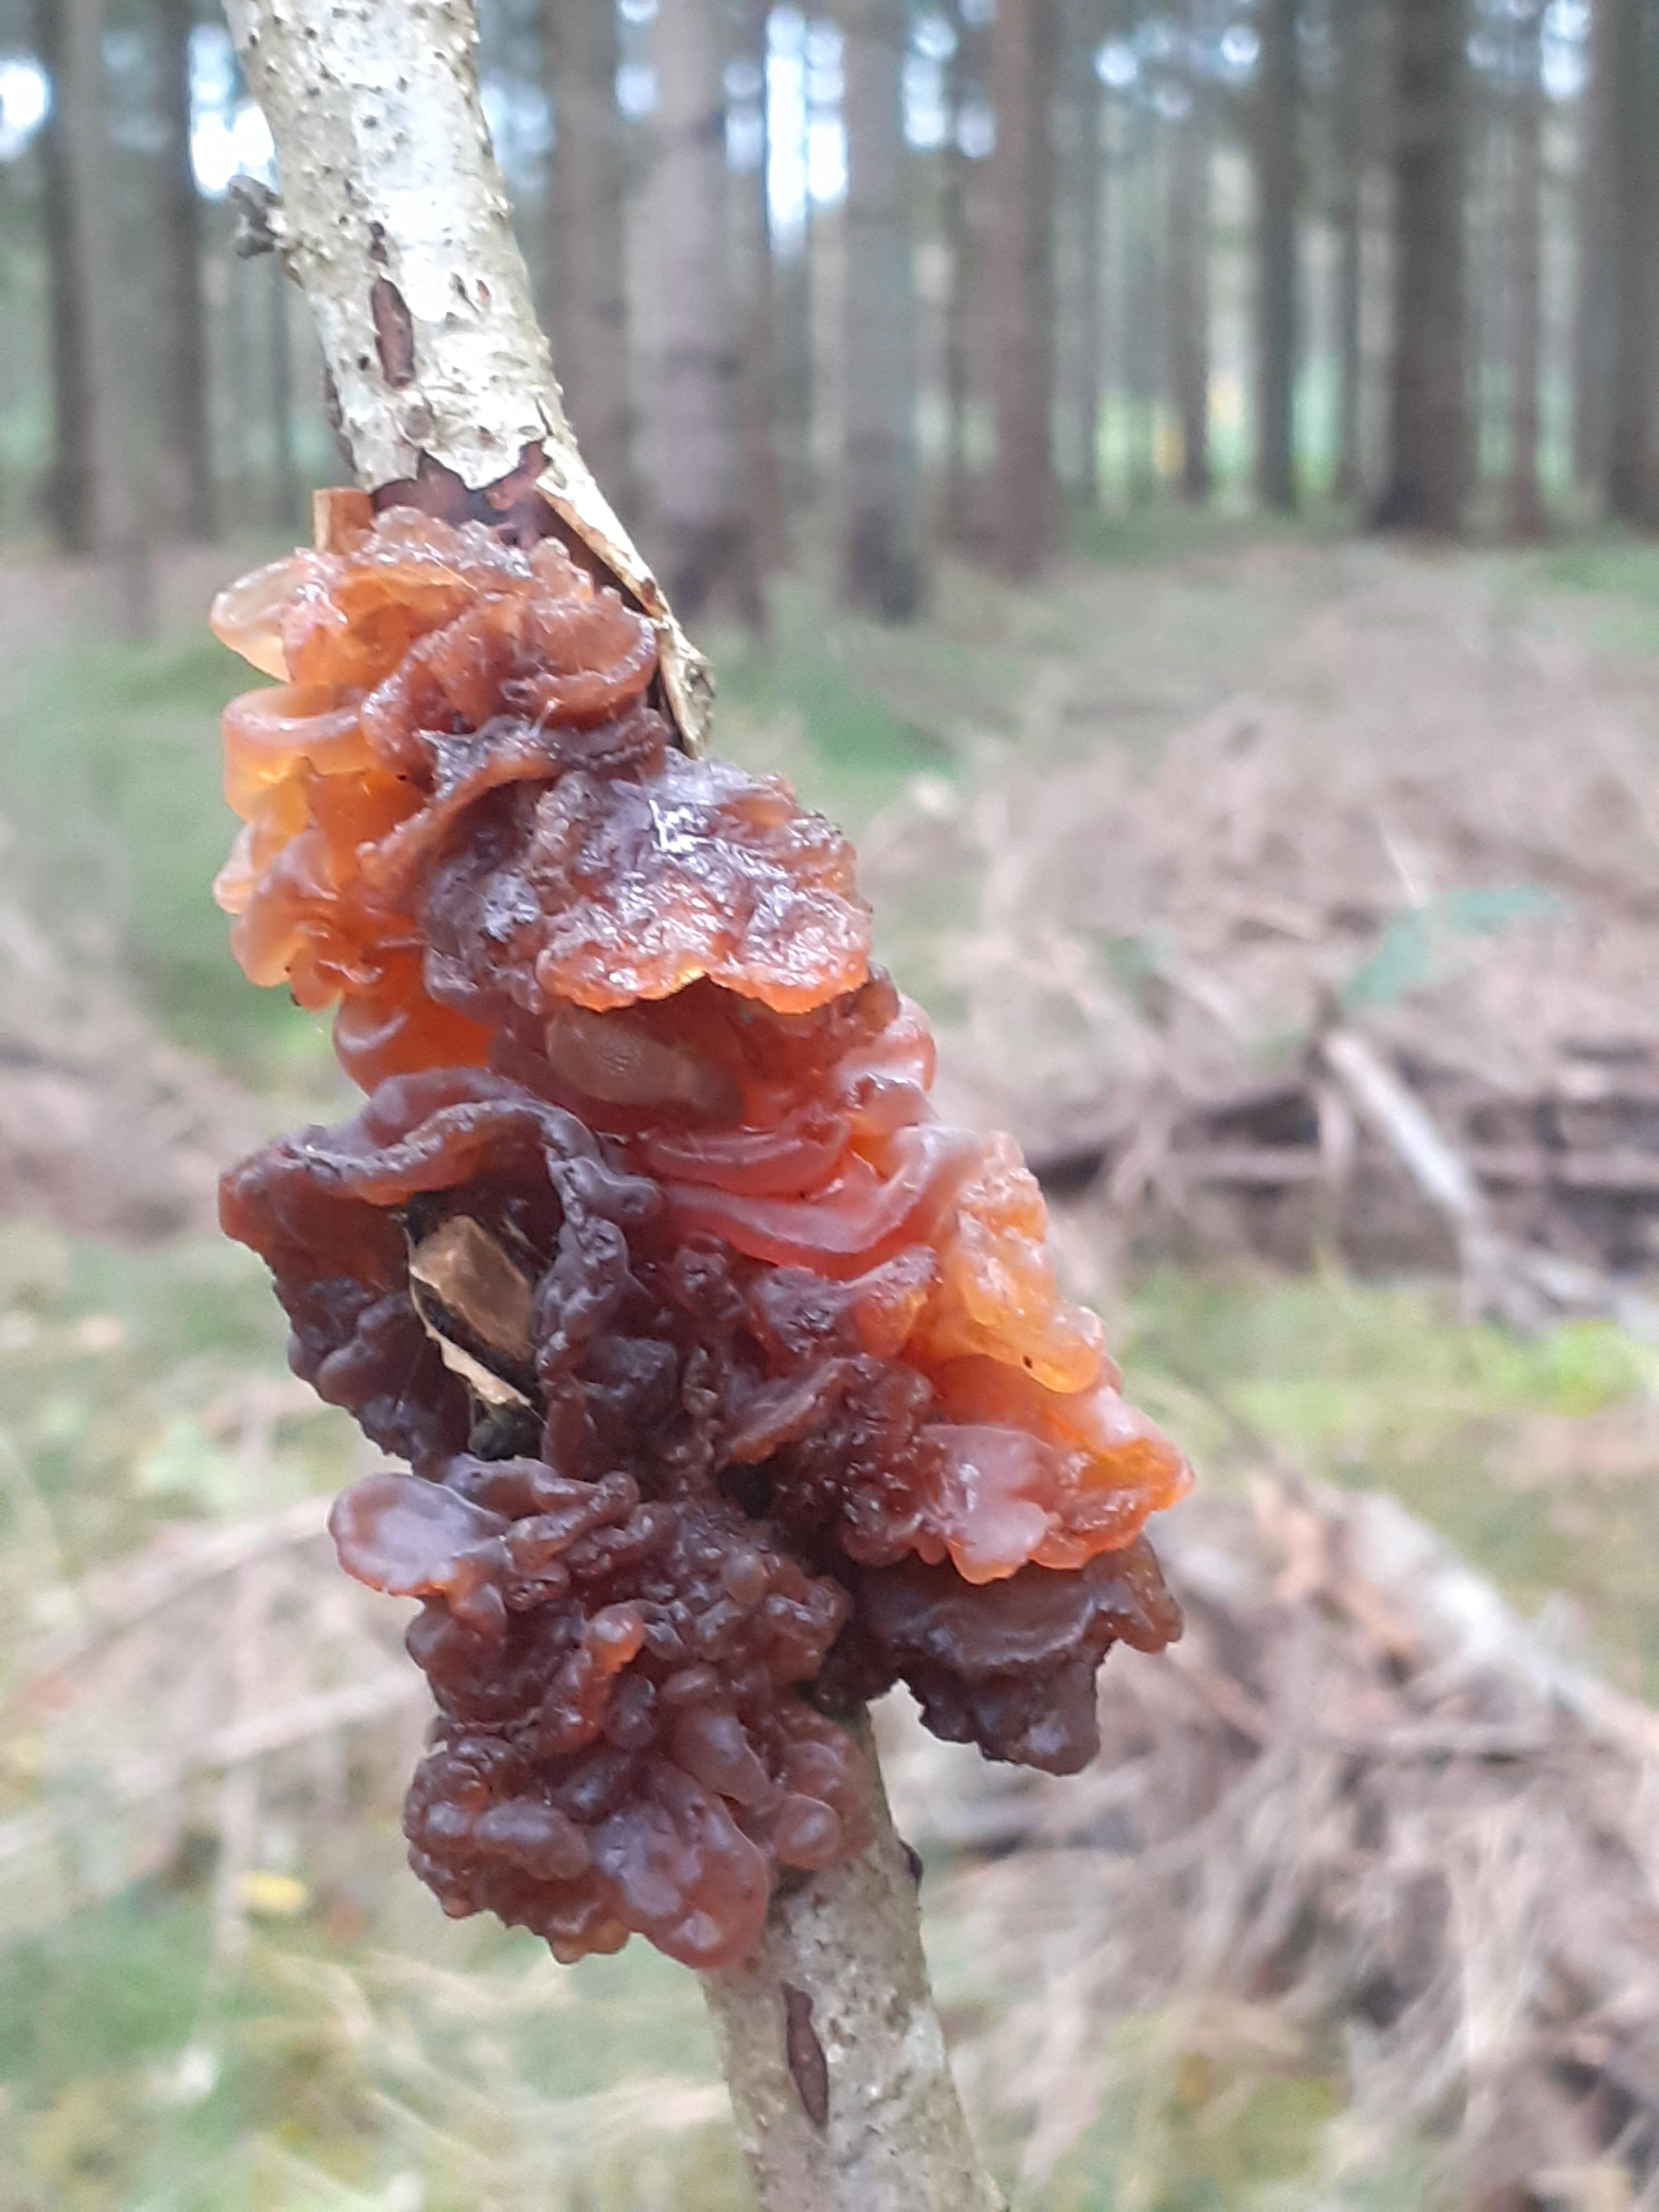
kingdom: Fungi
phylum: Basidiomycota
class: Tremellomycetes
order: Tremellales
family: Tremellaceae
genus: Phaeotremella
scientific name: Phaeotremella frondosa
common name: kæmpe-bævresvamp
